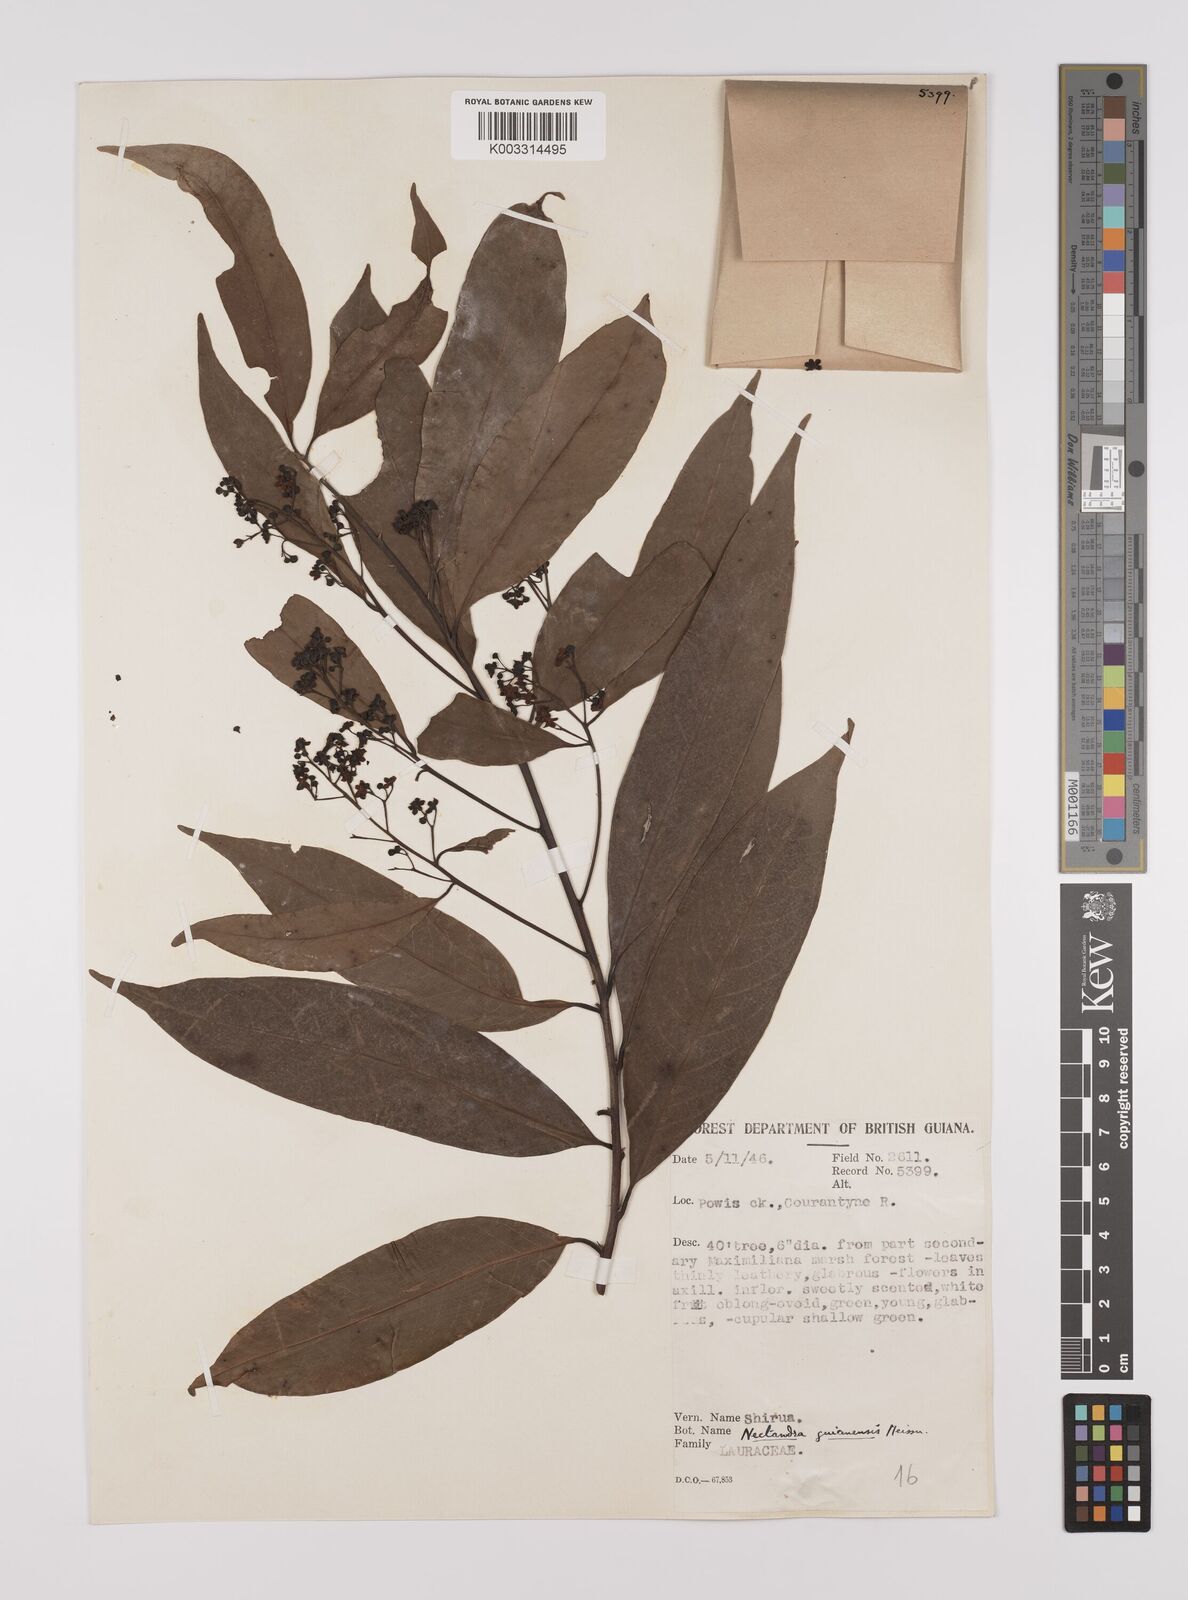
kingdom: Plantae
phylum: Tracheophyta
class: Magnoliopsida
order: Laurales
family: Lauraceae
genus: Nectandra
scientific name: Nectandra sanguinea
